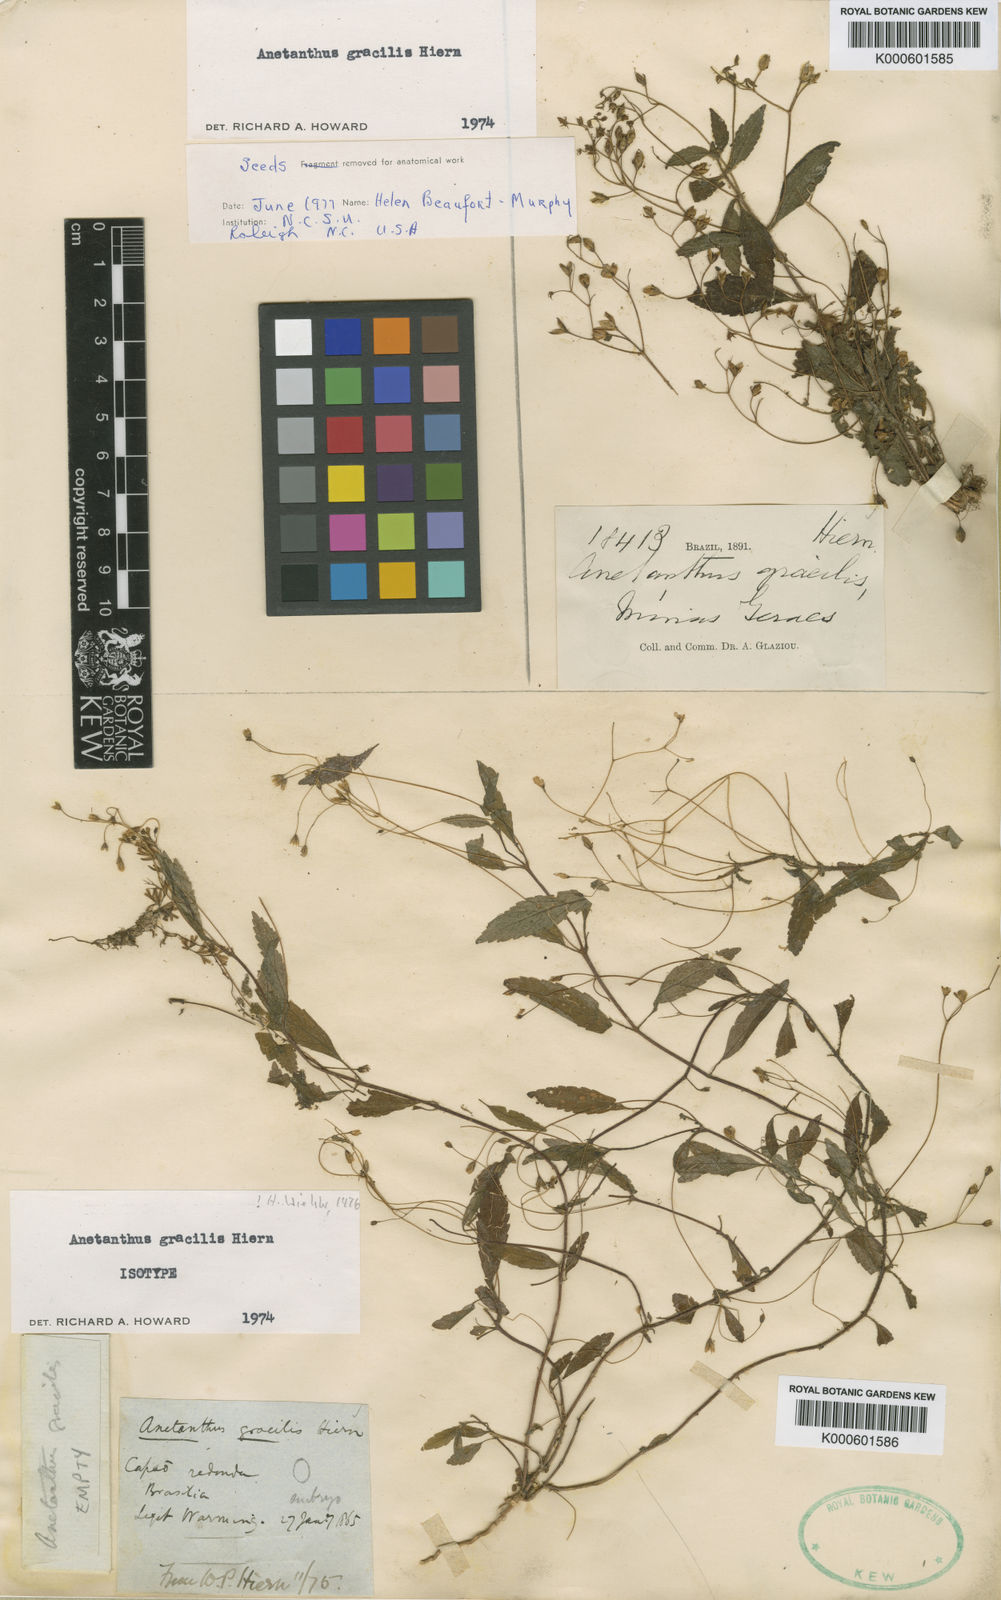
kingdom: Plantae
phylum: Tracheophyta
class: Magnoliopsida
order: Lamiales
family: Gesneriaceae
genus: Anetanthus
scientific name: Anetanthus gracilis
